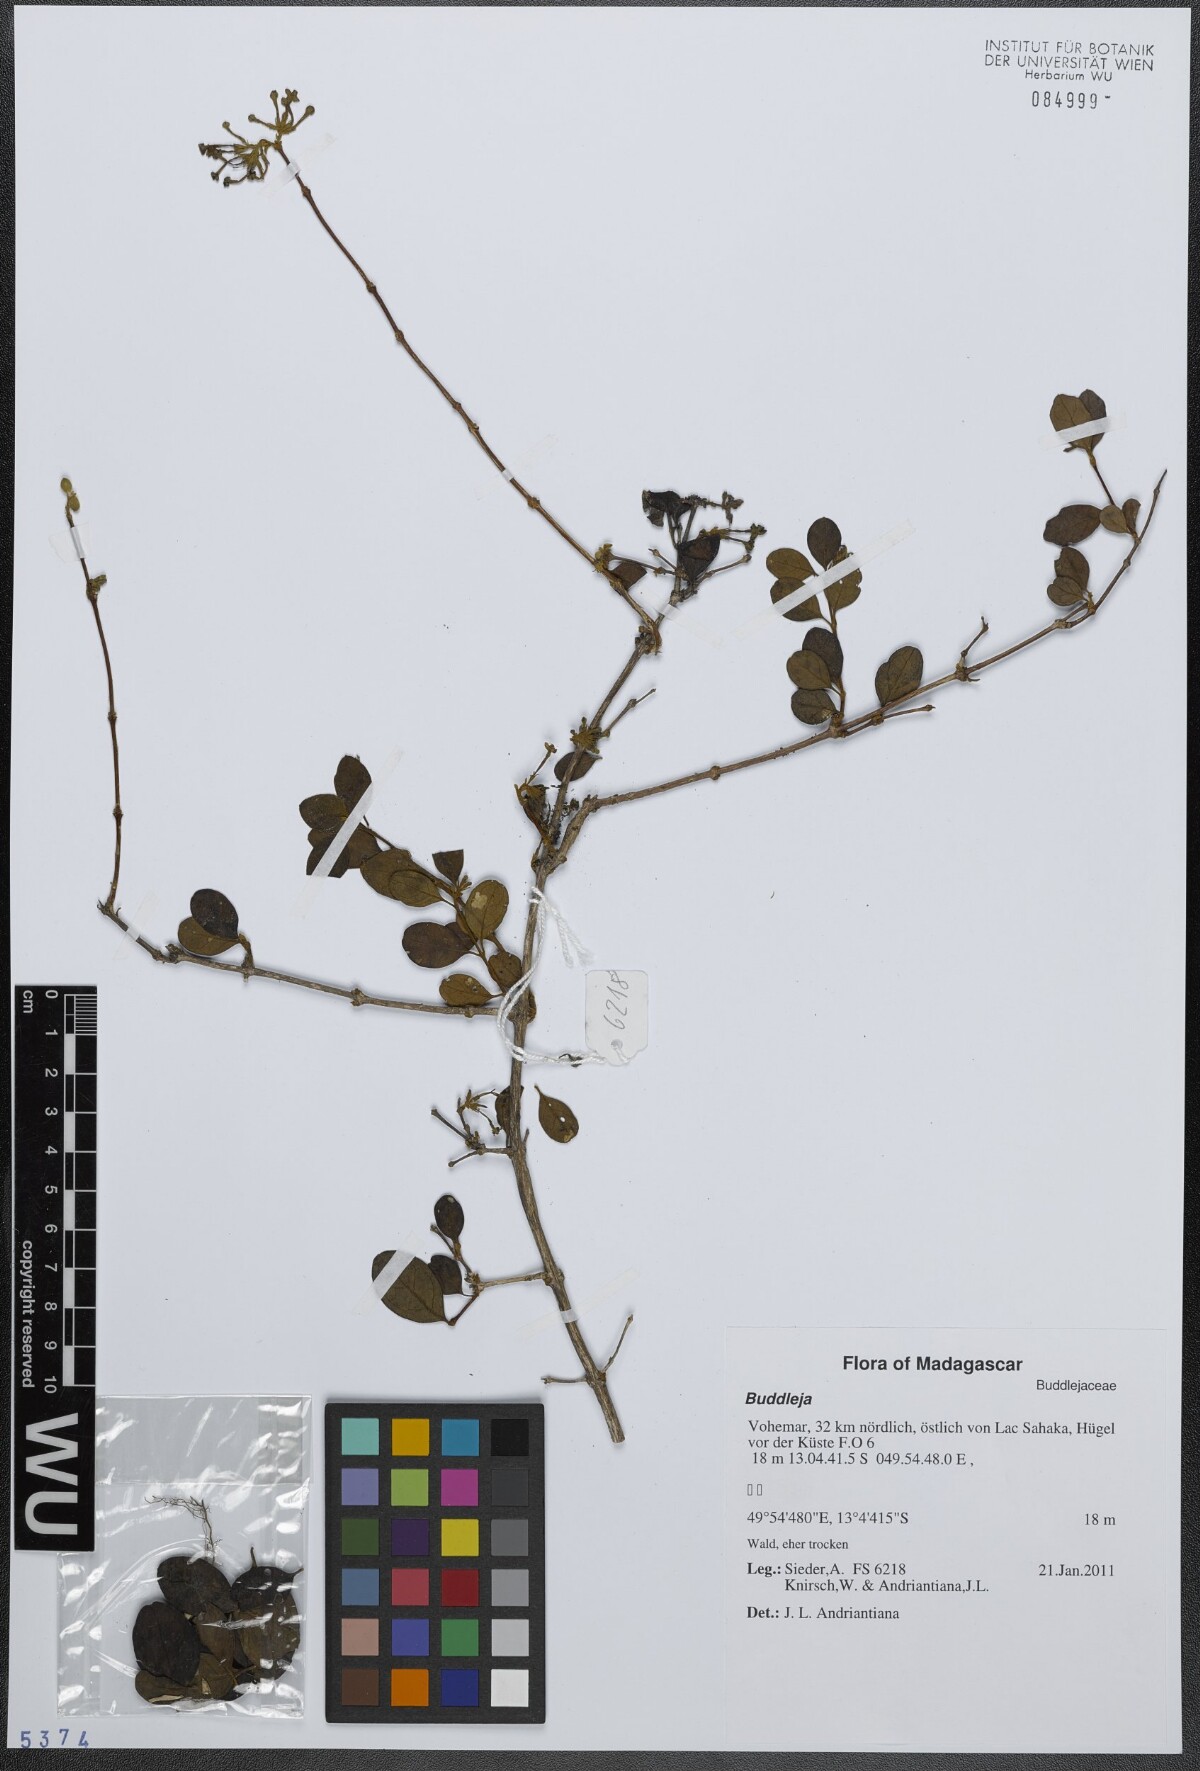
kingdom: Plantae
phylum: Tracheophyta
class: Magnoliopsida
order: Lamiales
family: Scrophulariaceae
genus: Buddleja
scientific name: Buddleja
